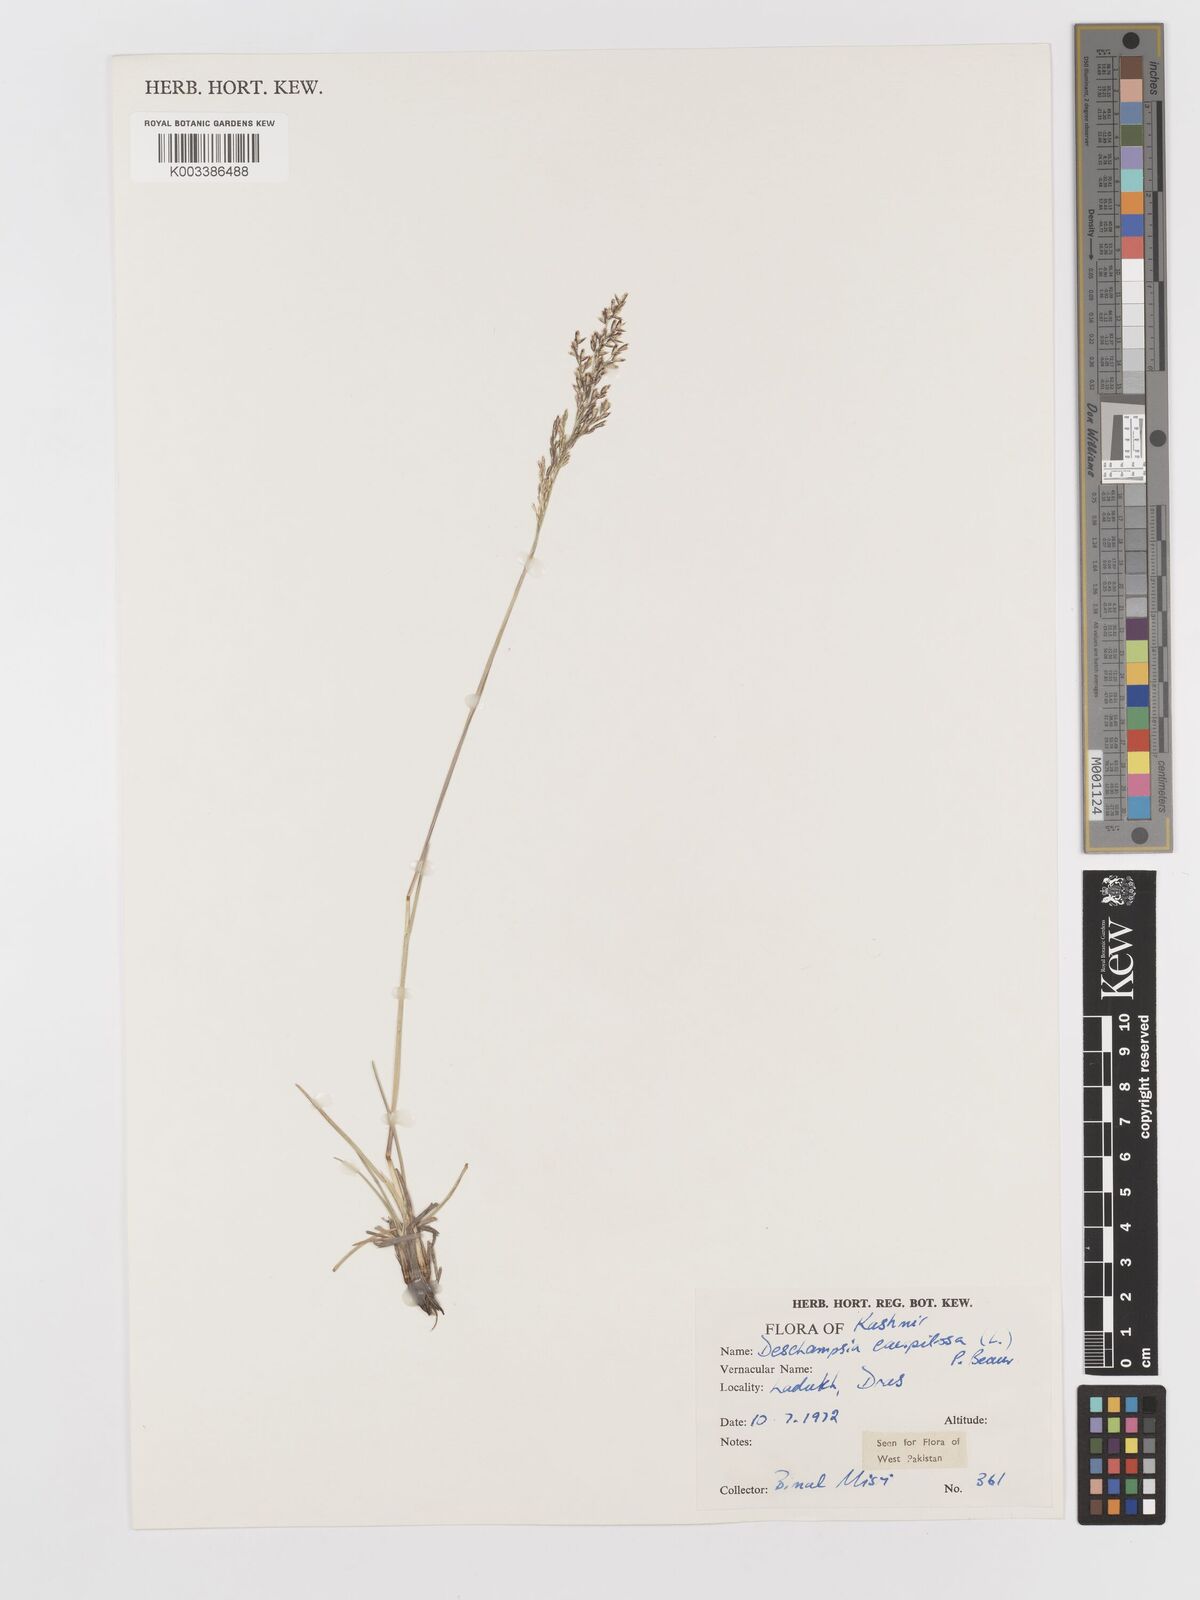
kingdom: Plantae
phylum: Tracheophyta
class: Liliopsida
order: Poales
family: Poaceae
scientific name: Poaceae
